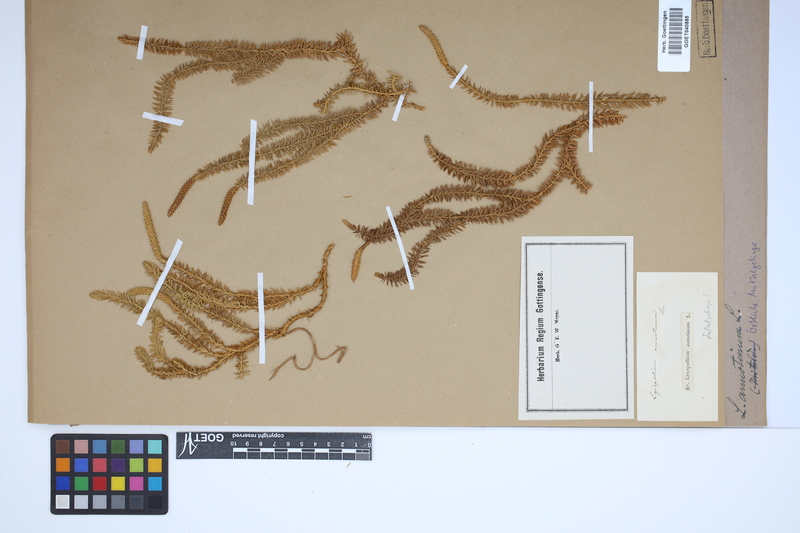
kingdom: Plantae
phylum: Tracheophyta
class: Lycopodiopsida
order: Lycopodiales
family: Lycopodiaceae
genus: Spinulum
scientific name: Spinulum annotinum
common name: Interrupted club-moss
